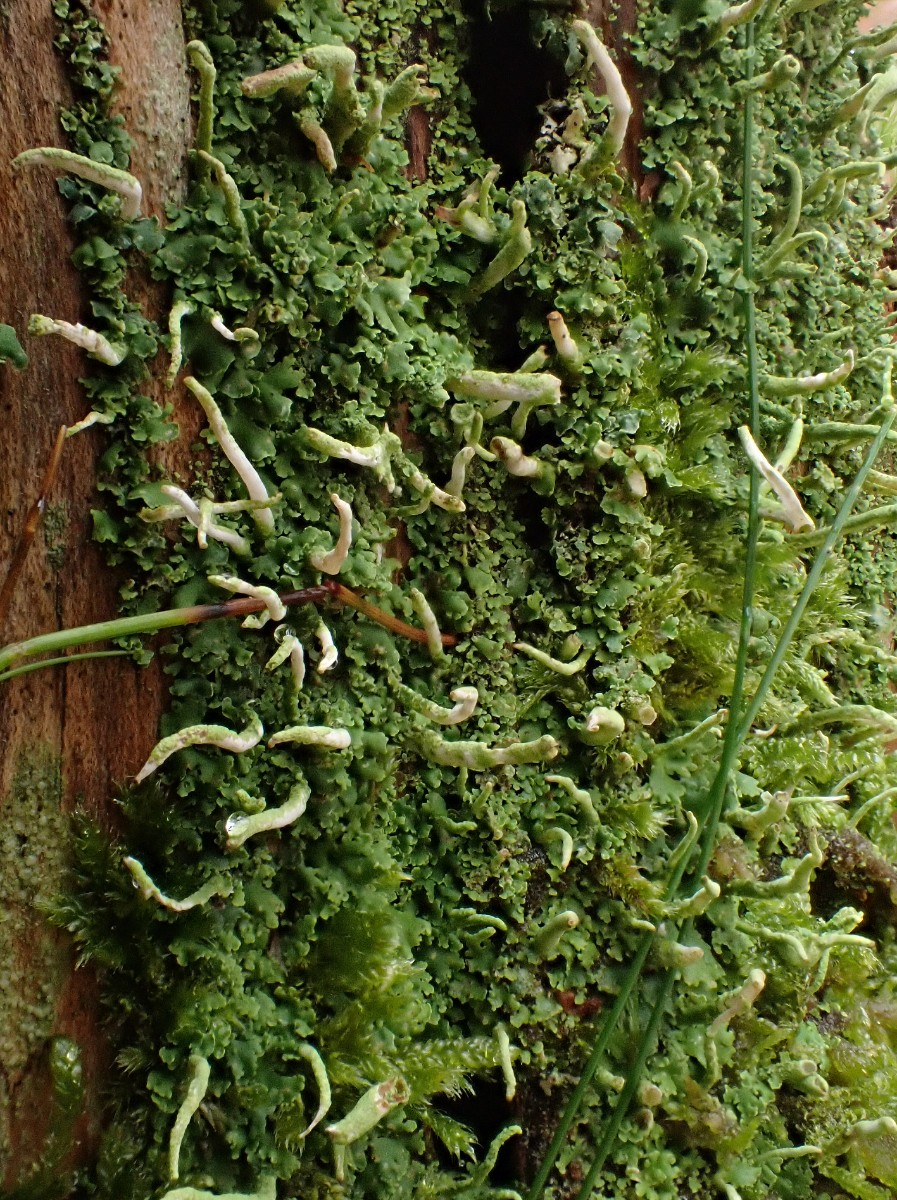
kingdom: Fungi
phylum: Ascomycota
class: Lecanoromycetes
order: Lecanorales
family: Cladoniaceae
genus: Cladonia
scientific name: Cladonia coniocraea
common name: træfods-bægerlav
